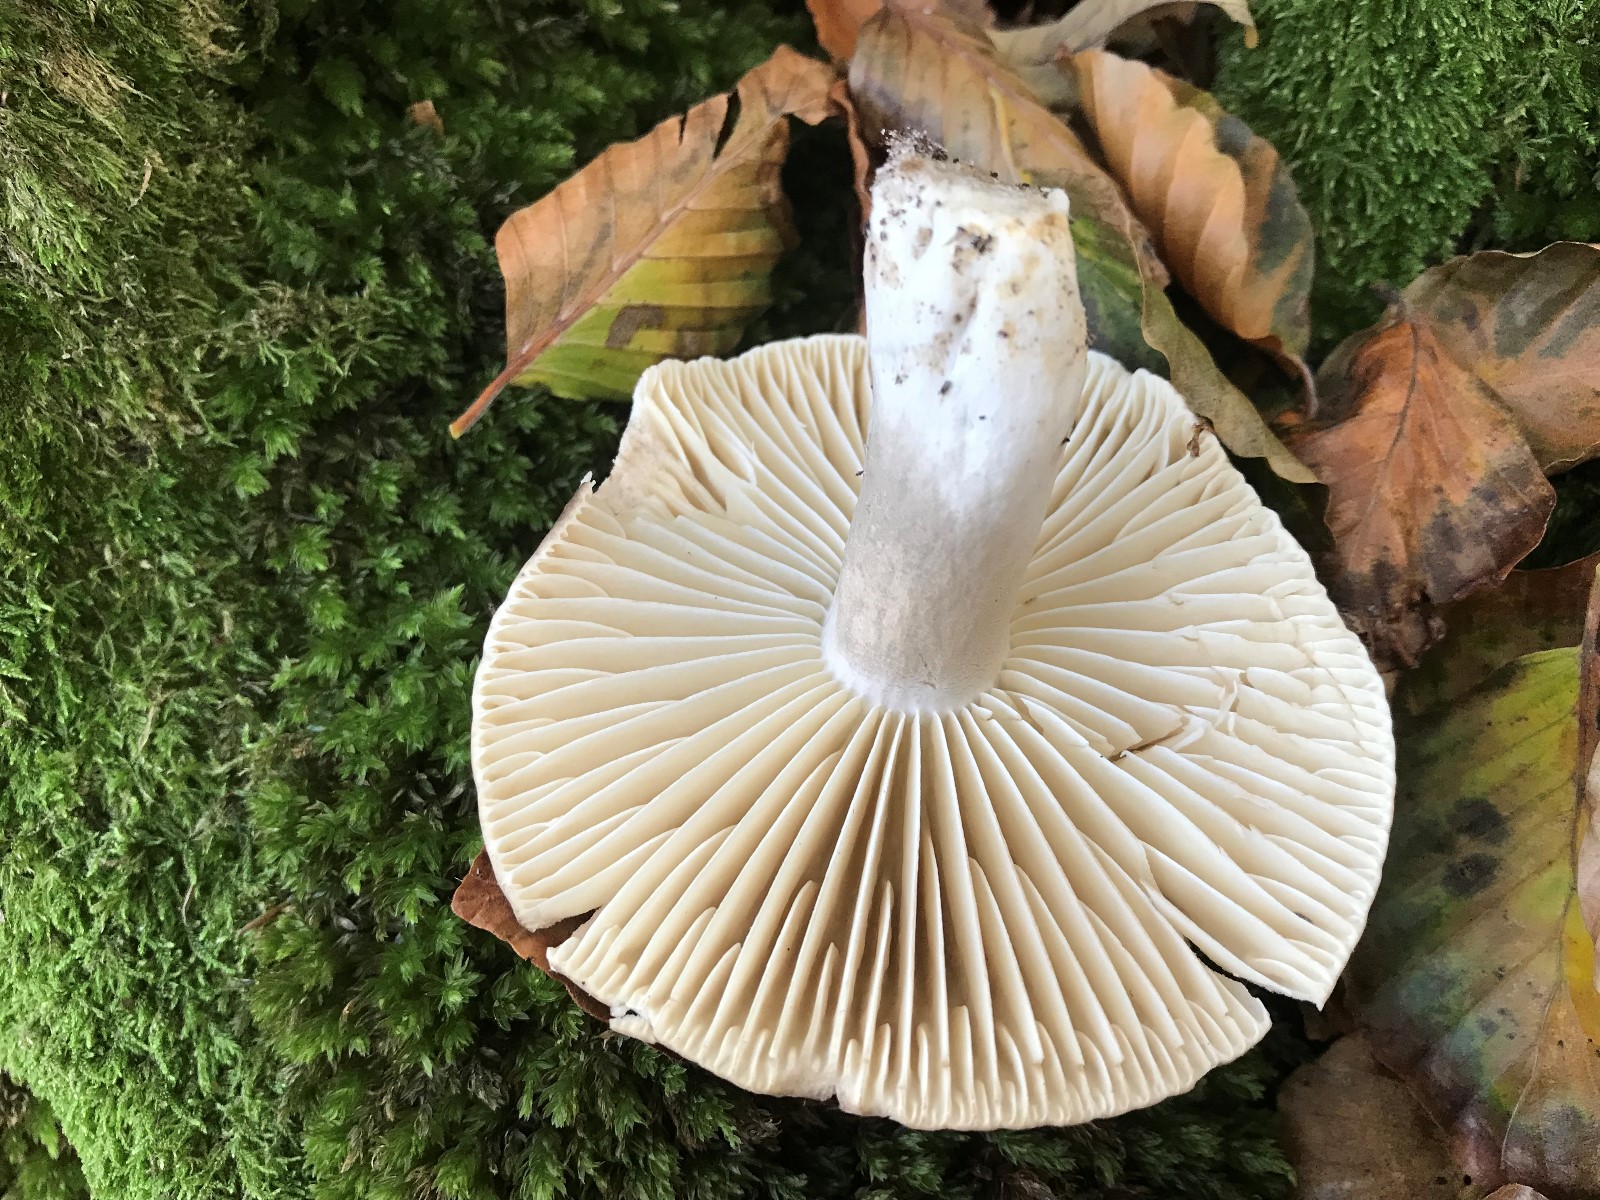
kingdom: Fungi
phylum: Basidiomycota
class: Agaricomycetes
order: Russulales
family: Russulaceae
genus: Russula
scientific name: Russula adusta
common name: sværtende skørhat
